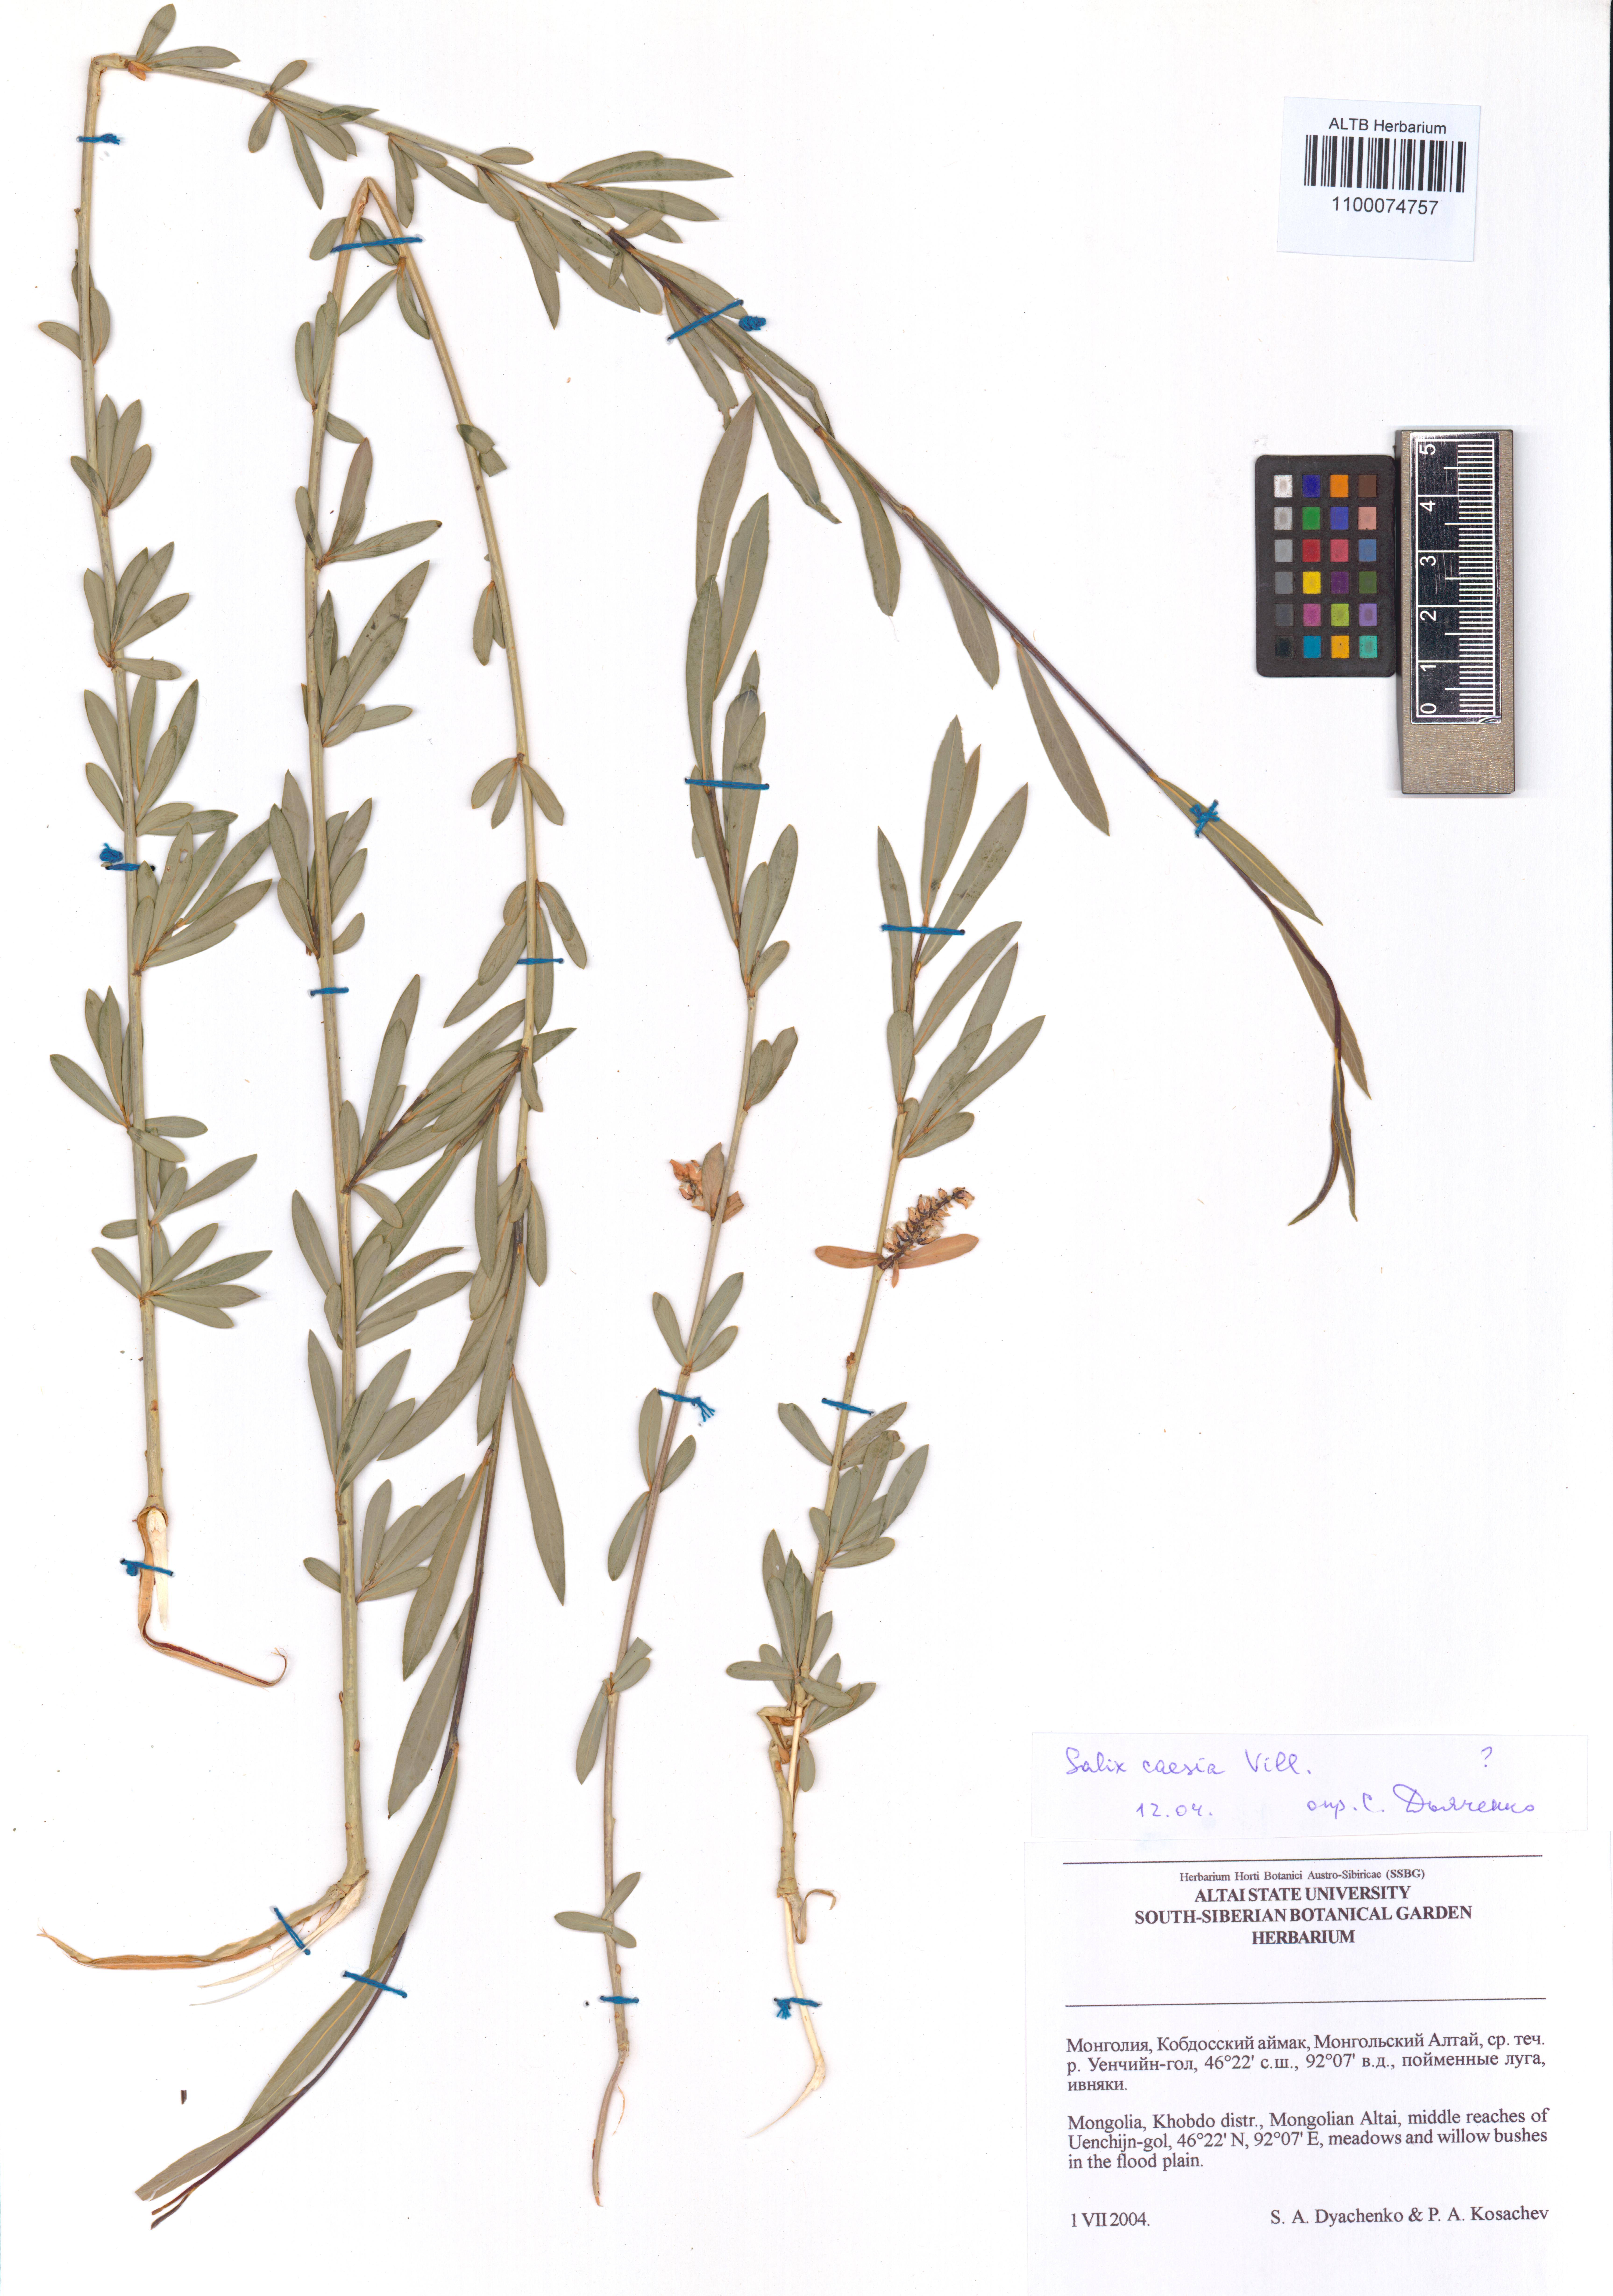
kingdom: Plantae
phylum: Tracheophyta
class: Magnoliopsida
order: Malpighiales
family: Salicaceae
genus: Salix
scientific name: Salix caesia
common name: Blue willow
